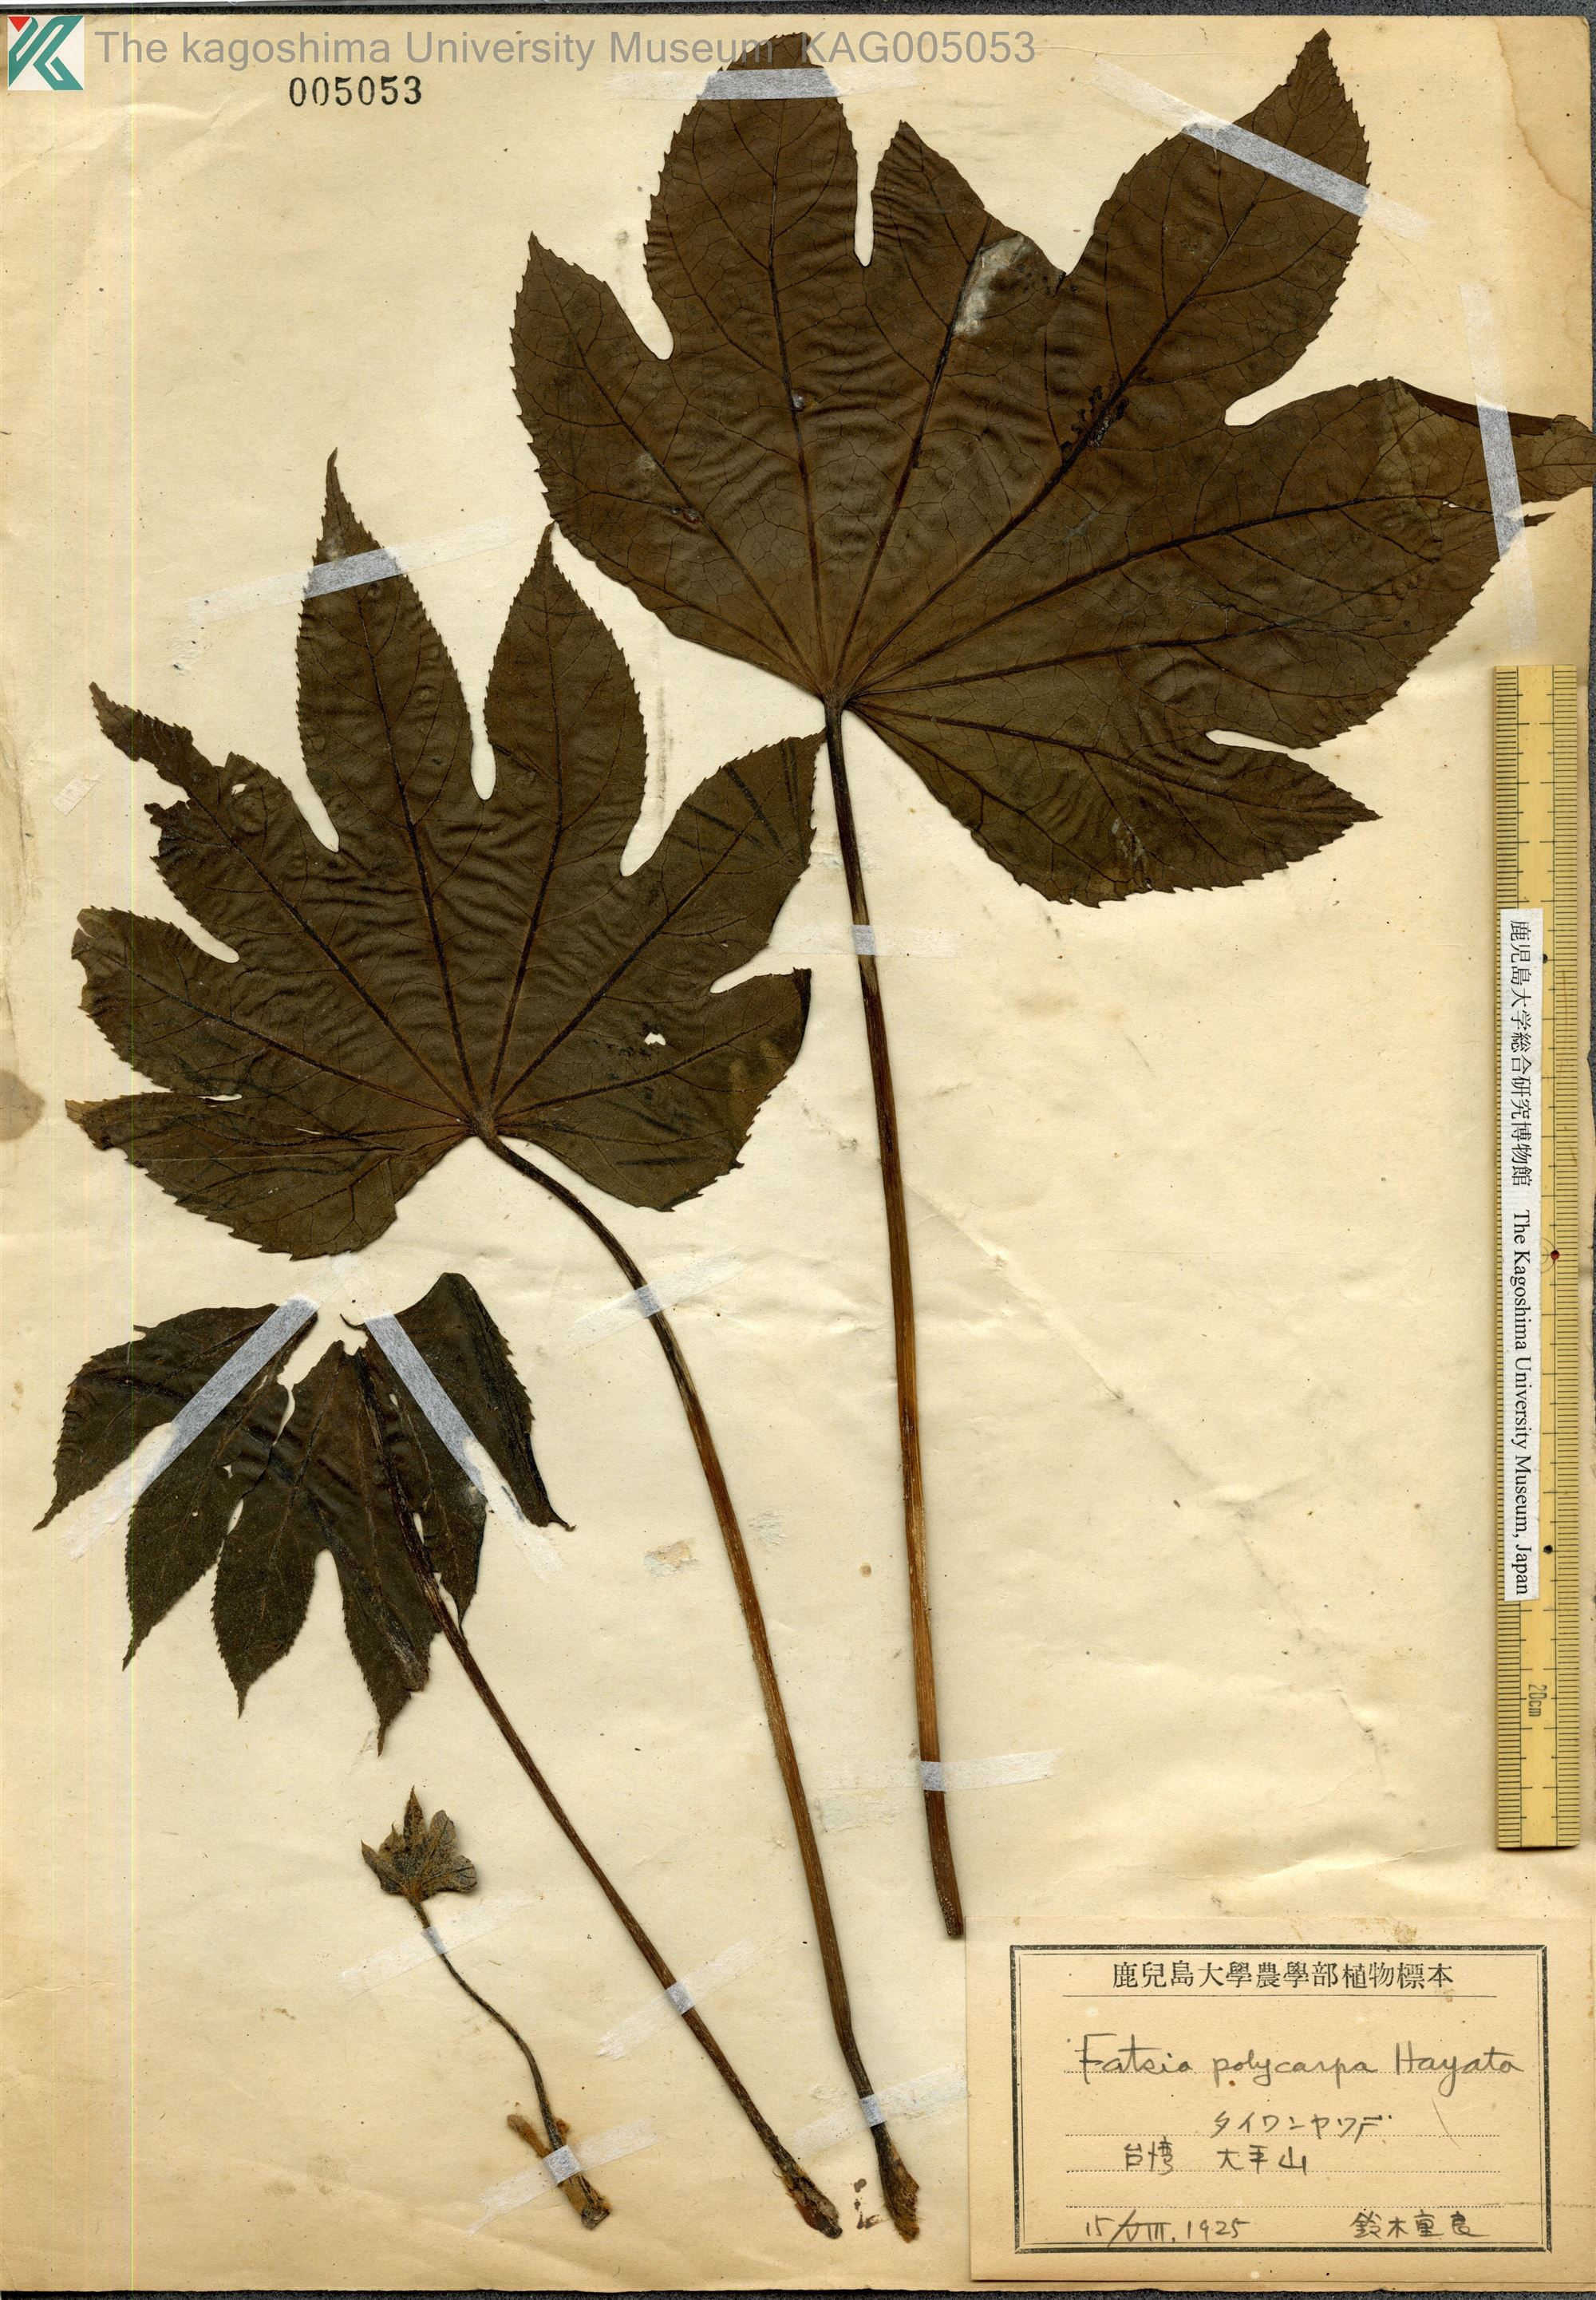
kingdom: Plantae
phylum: Tracheophyta
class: Magnoliopsida
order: Apiales
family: Araliaceae
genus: Fatsia
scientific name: Fatsia oligocarpella
